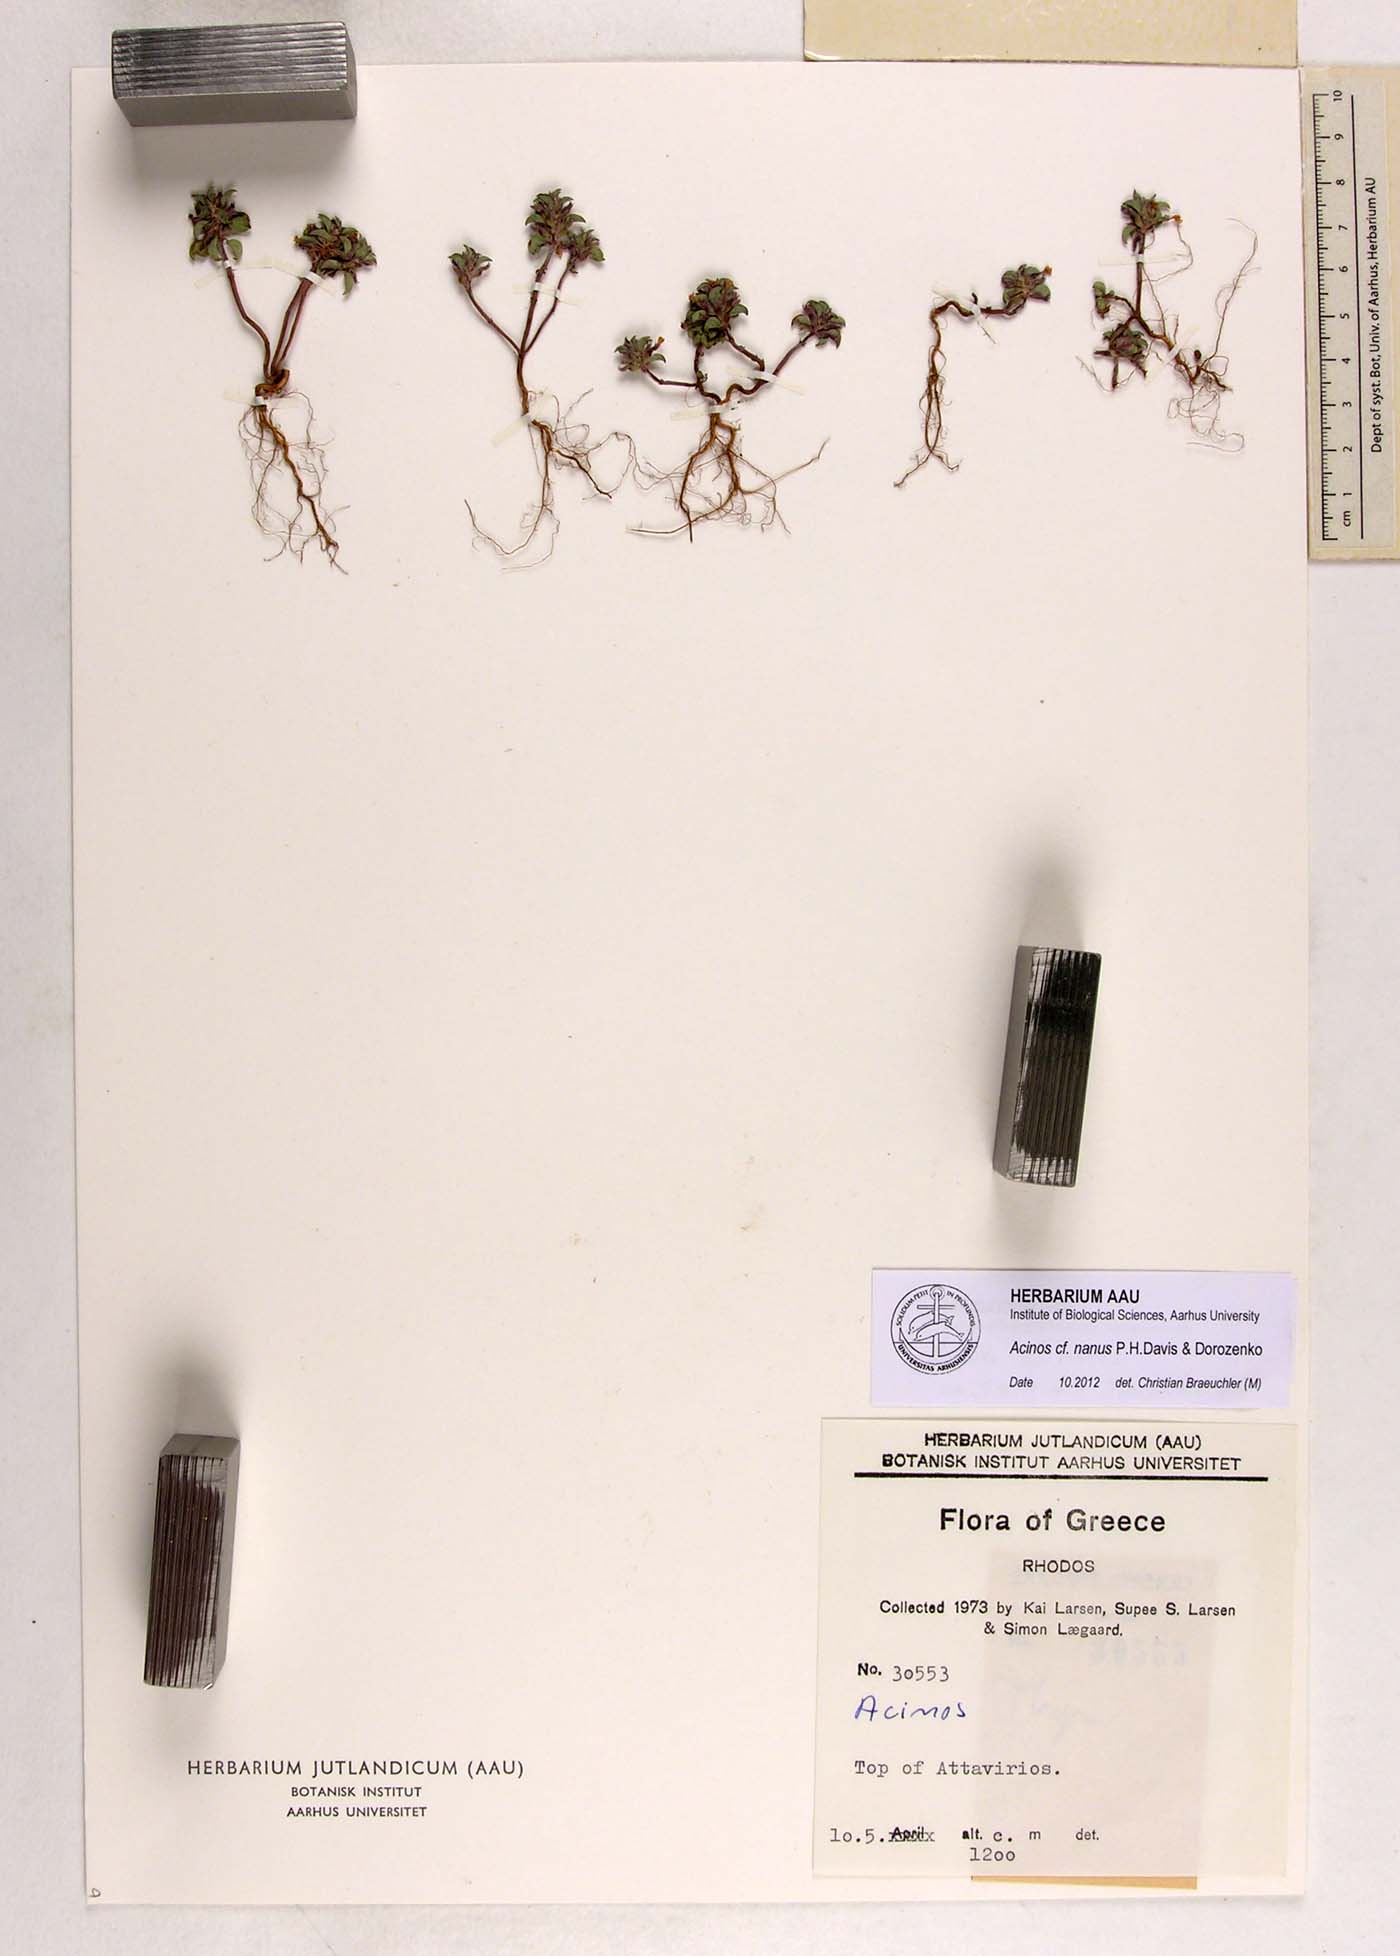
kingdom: Plantae
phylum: Tracheophyta
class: Magnoliopsida
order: Lamiales
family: Lamiaceae
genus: Clinopodium
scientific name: Clinopodium nanum
